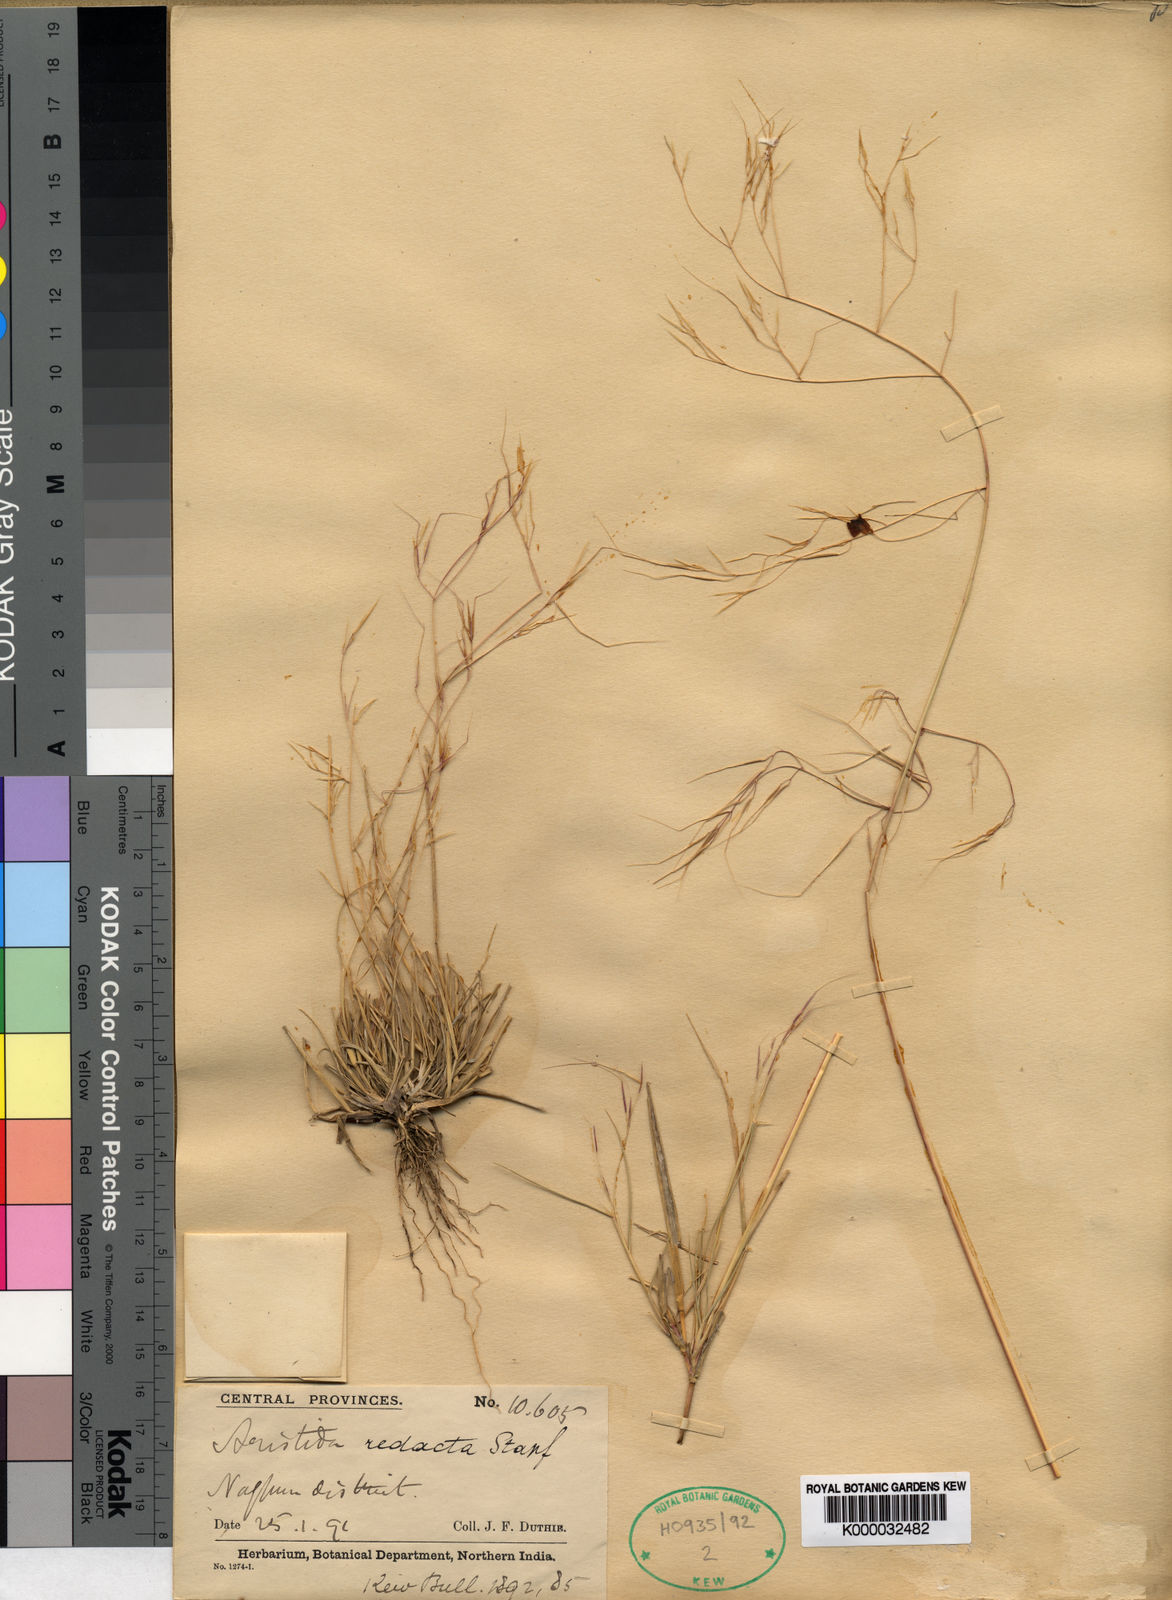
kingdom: Plantae
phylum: Tracheophyta
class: Liliopsida
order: Poales
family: Poaceae
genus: Aristida
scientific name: Aristida redacta
